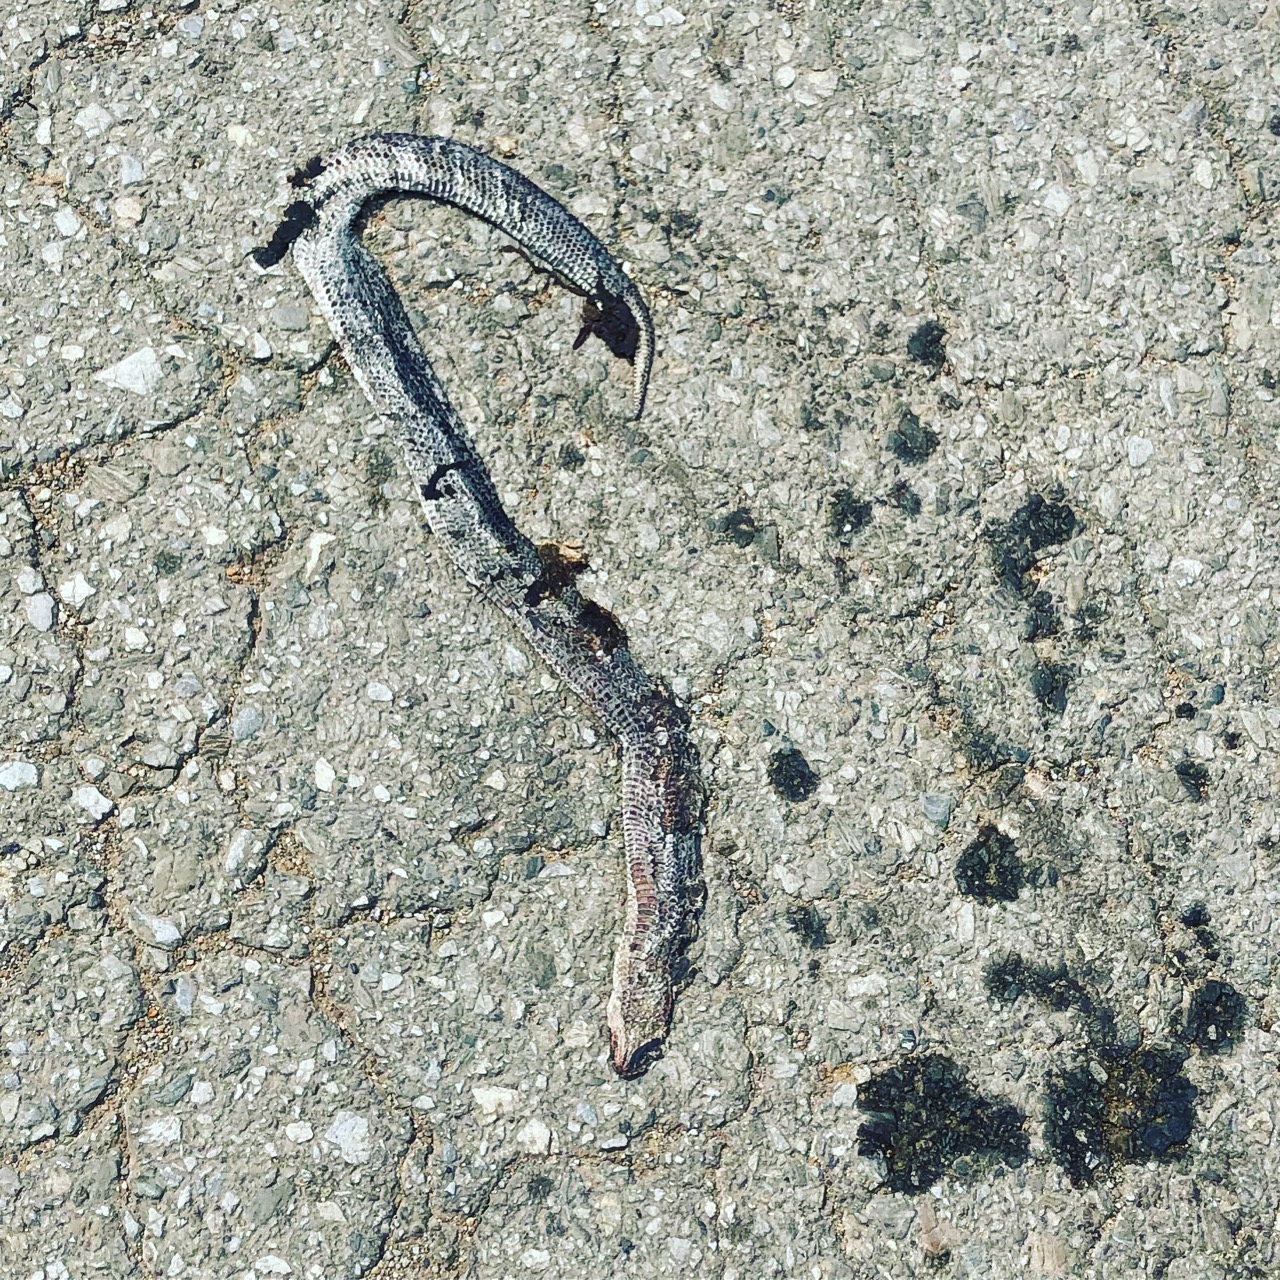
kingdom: Animalia
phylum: Chordata
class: Squamata
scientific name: Squamata
